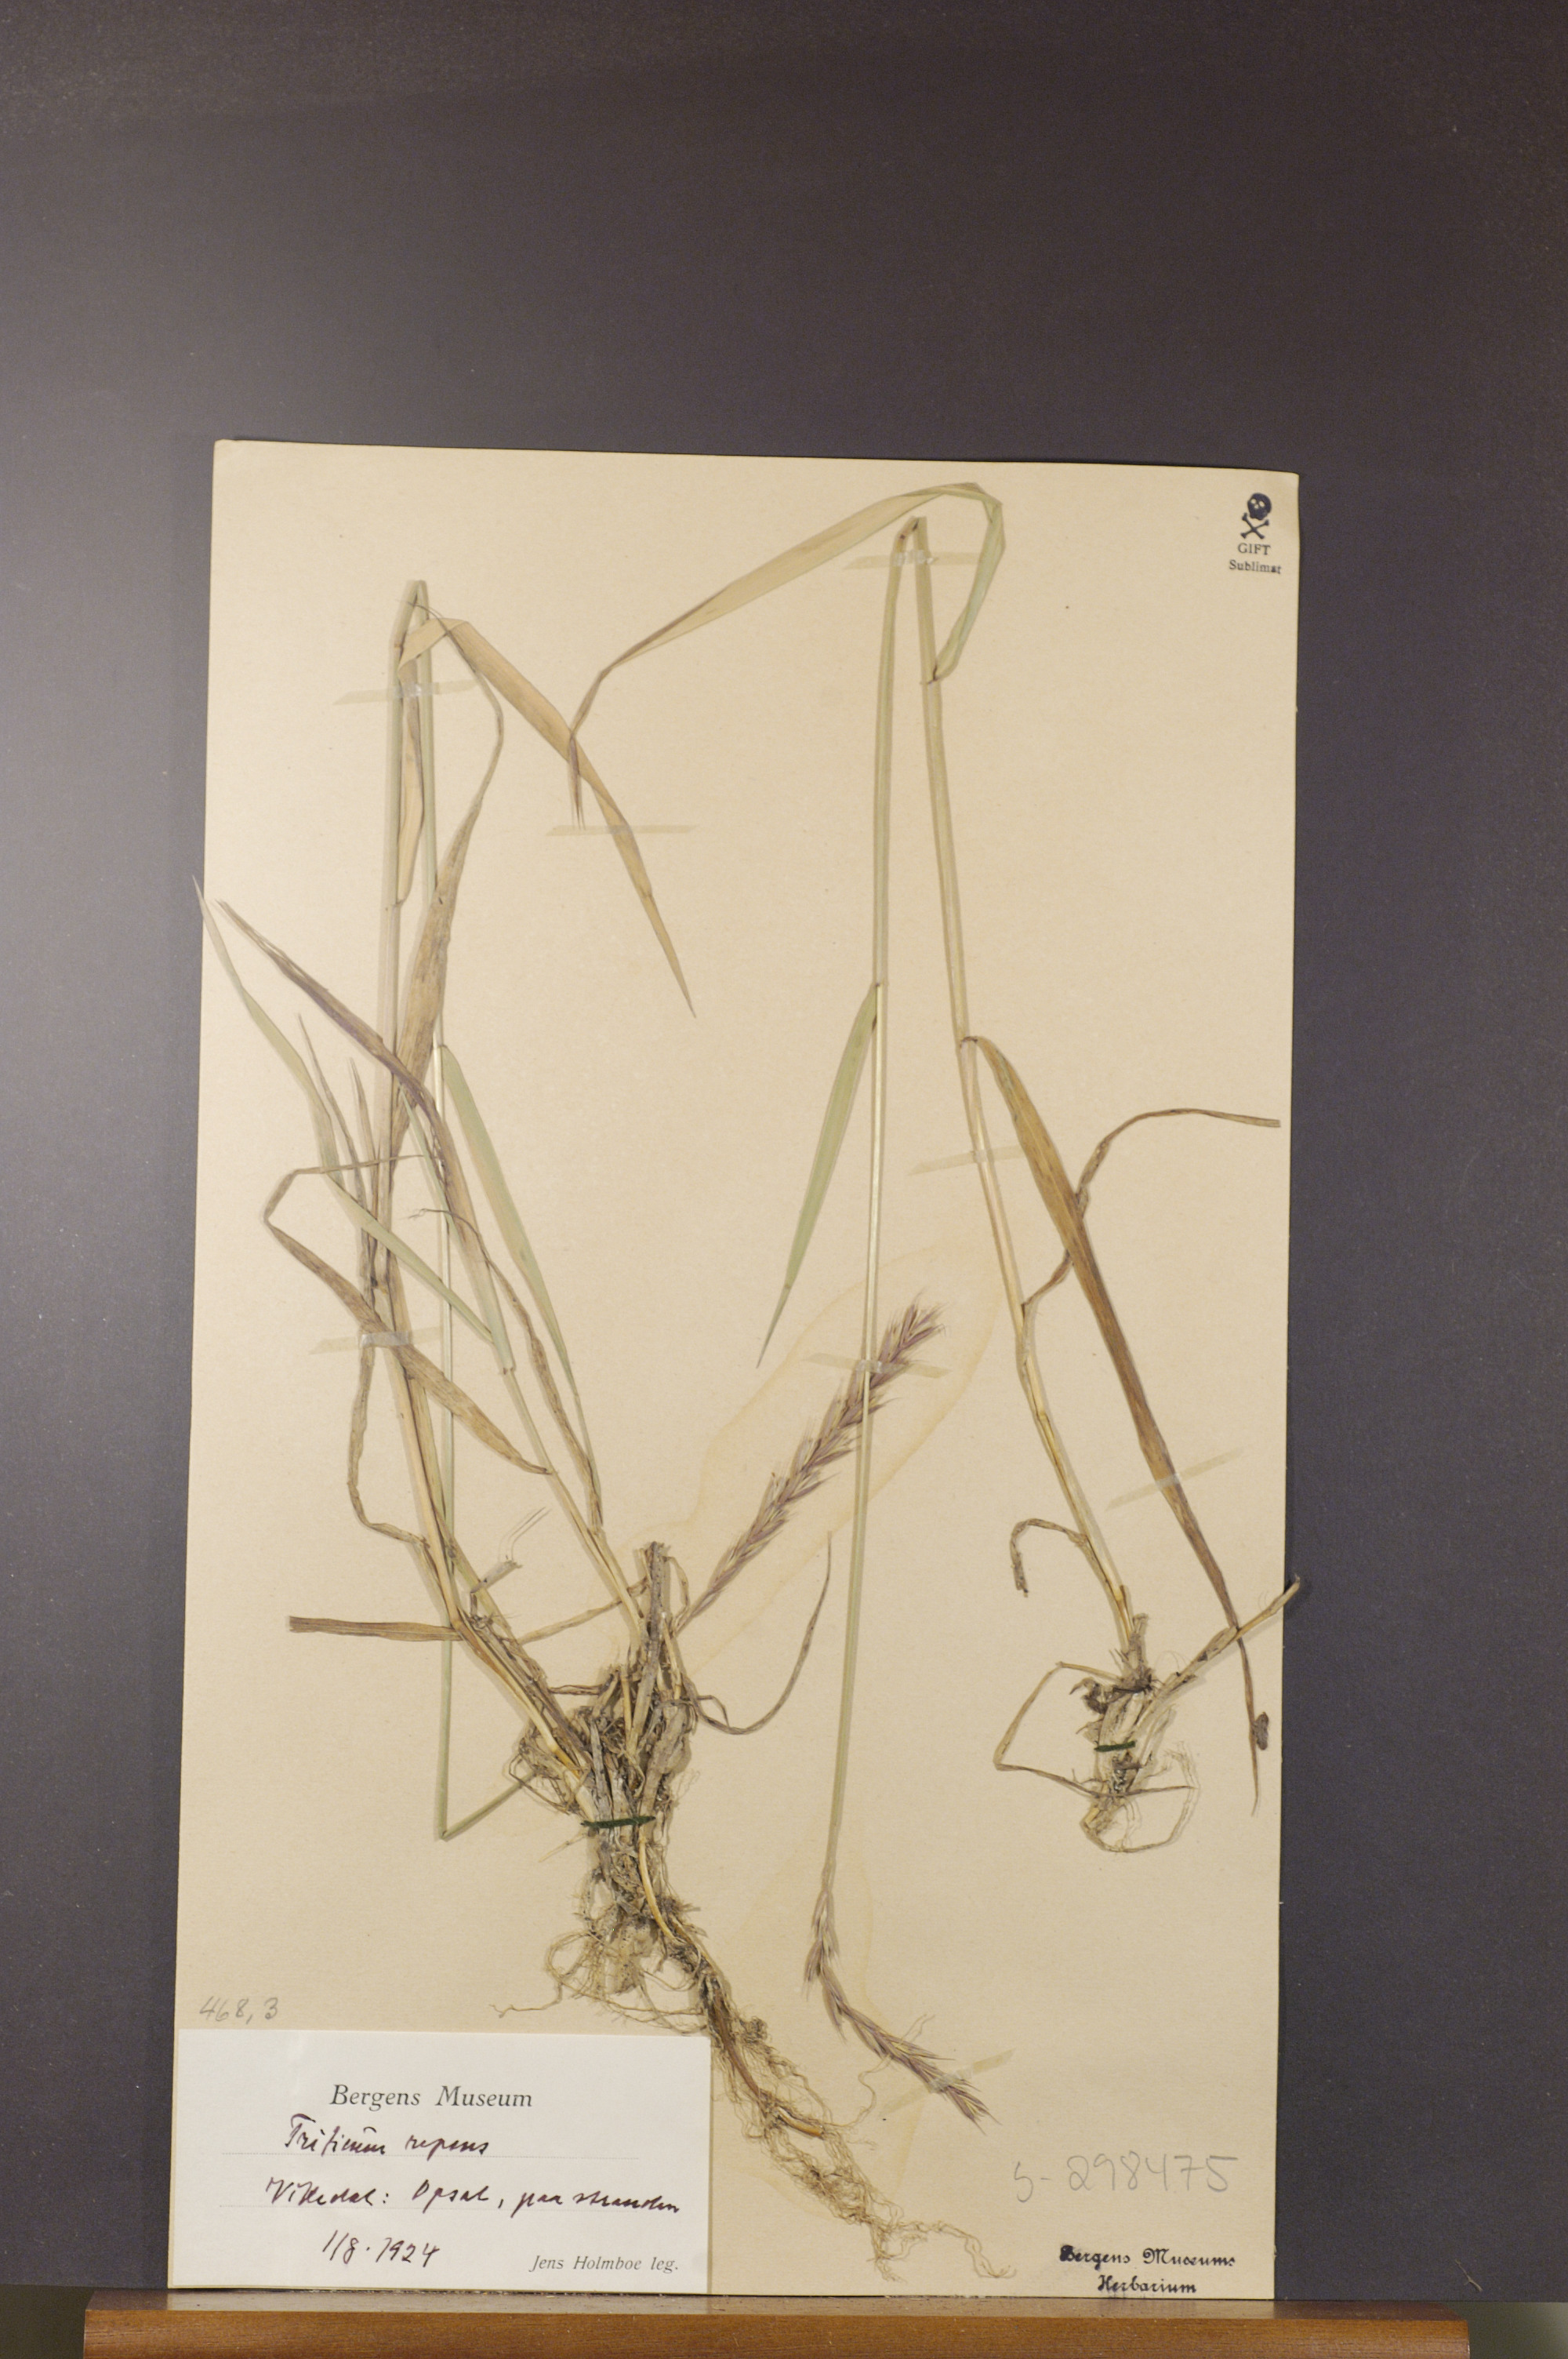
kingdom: Plantae
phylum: Tracheophyta
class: Liliopsida
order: Poales
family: Poaceae
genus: Elymus
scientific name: Elymus repens
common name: Quackgrass
